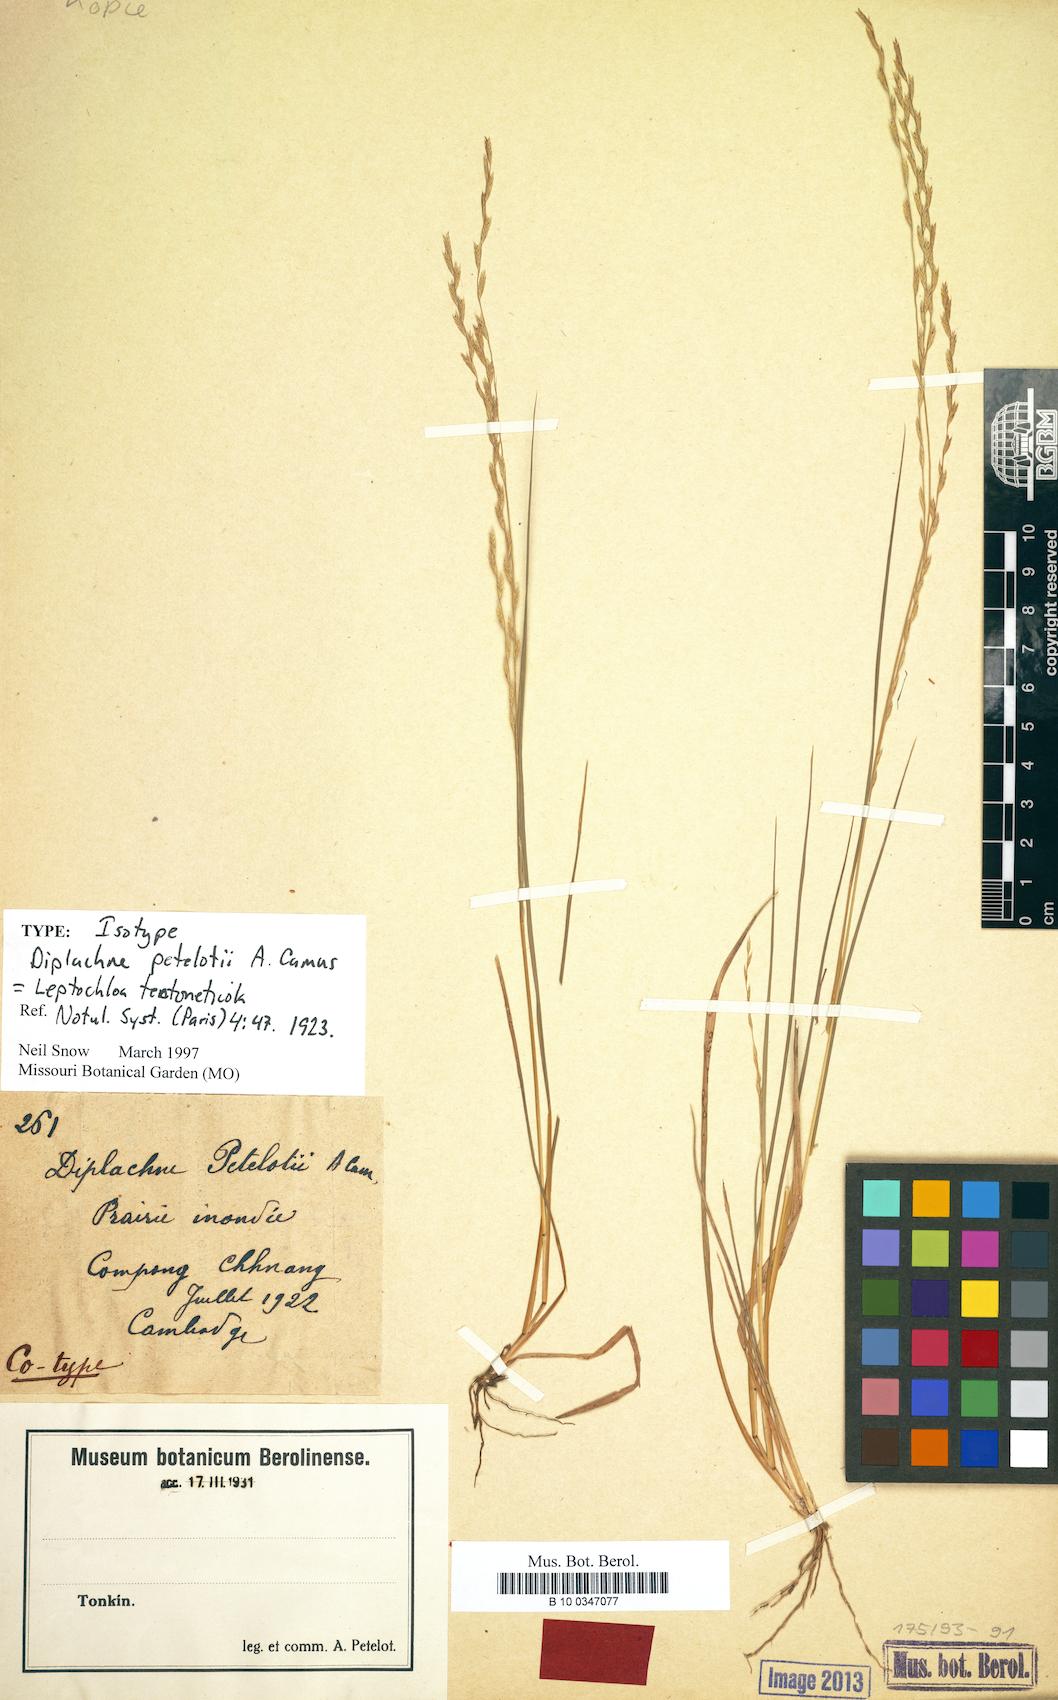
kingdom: Plantae
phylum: Tracheophyta
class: Liliopsida
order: Poales
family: Poaceae
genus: Leptochloa
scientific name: Leptochloa tectoneticola
